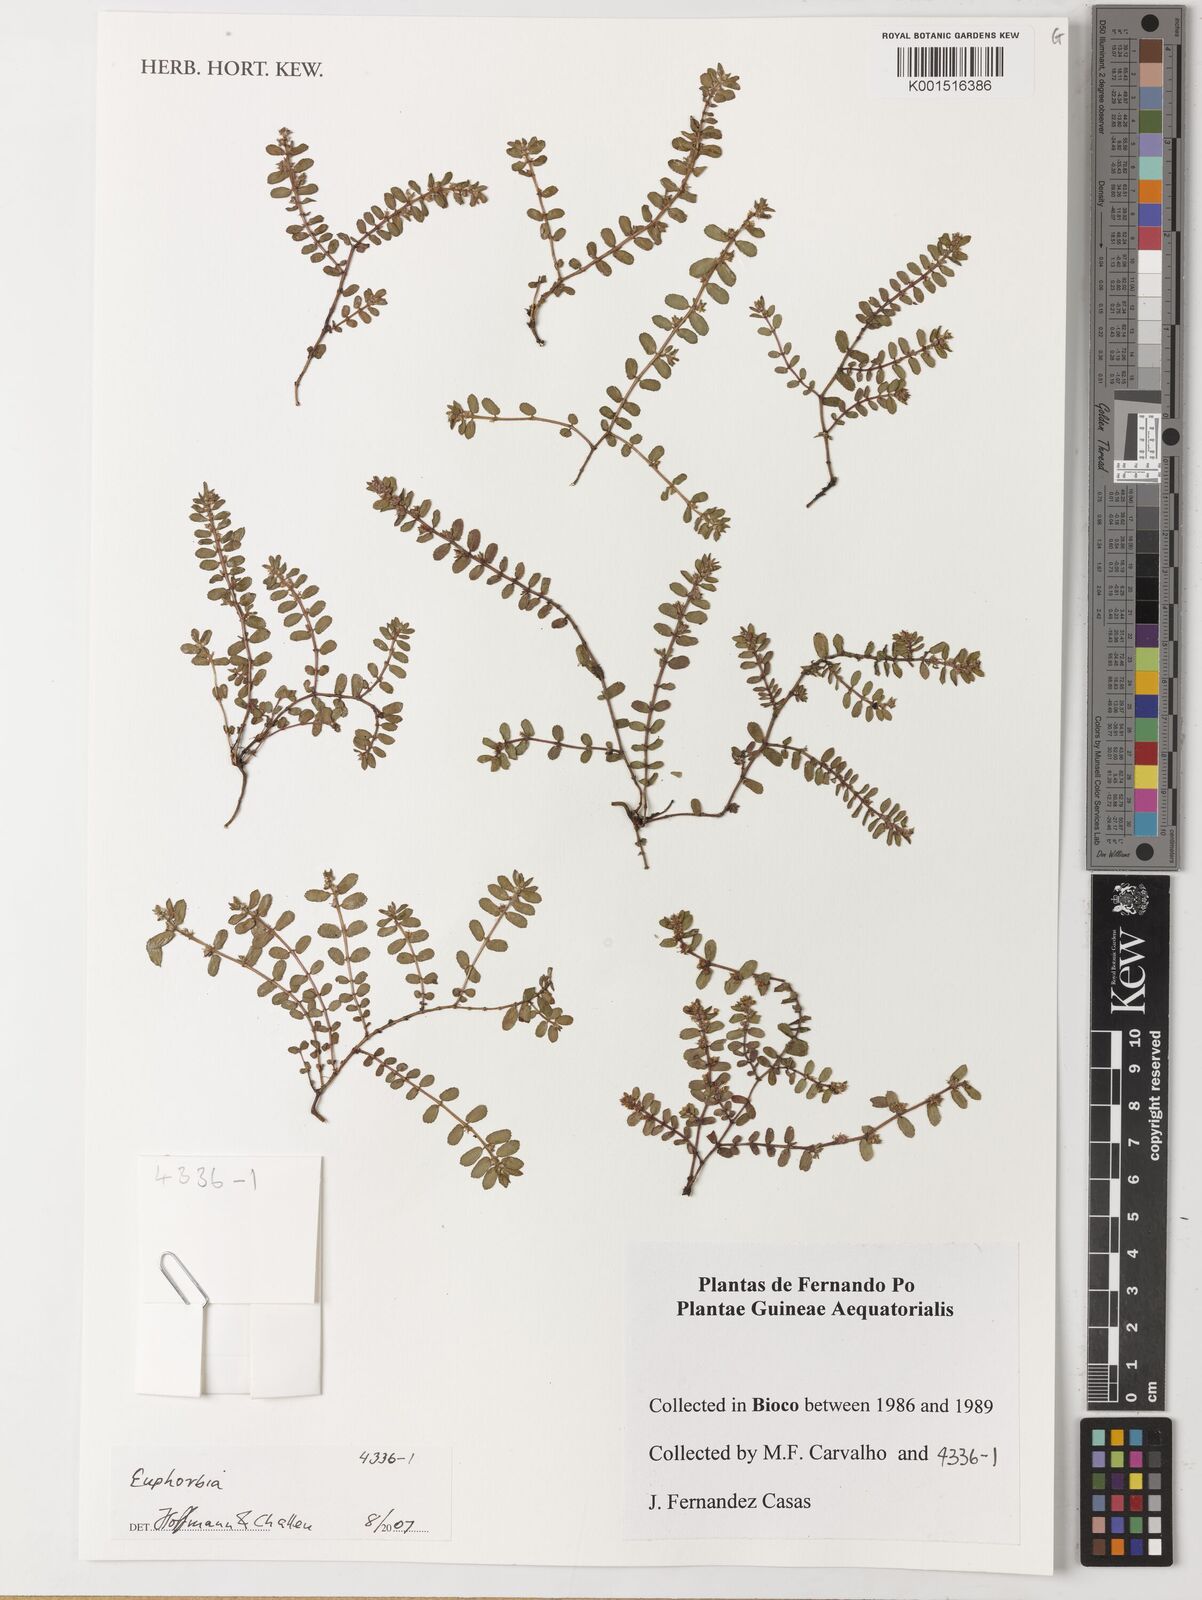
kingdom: Plantae
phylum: Tracheophyta
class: Magnoliopsida
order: Malpighiales
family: Euphorbiaceae
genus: Euphorbia
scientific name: Euphorbia
